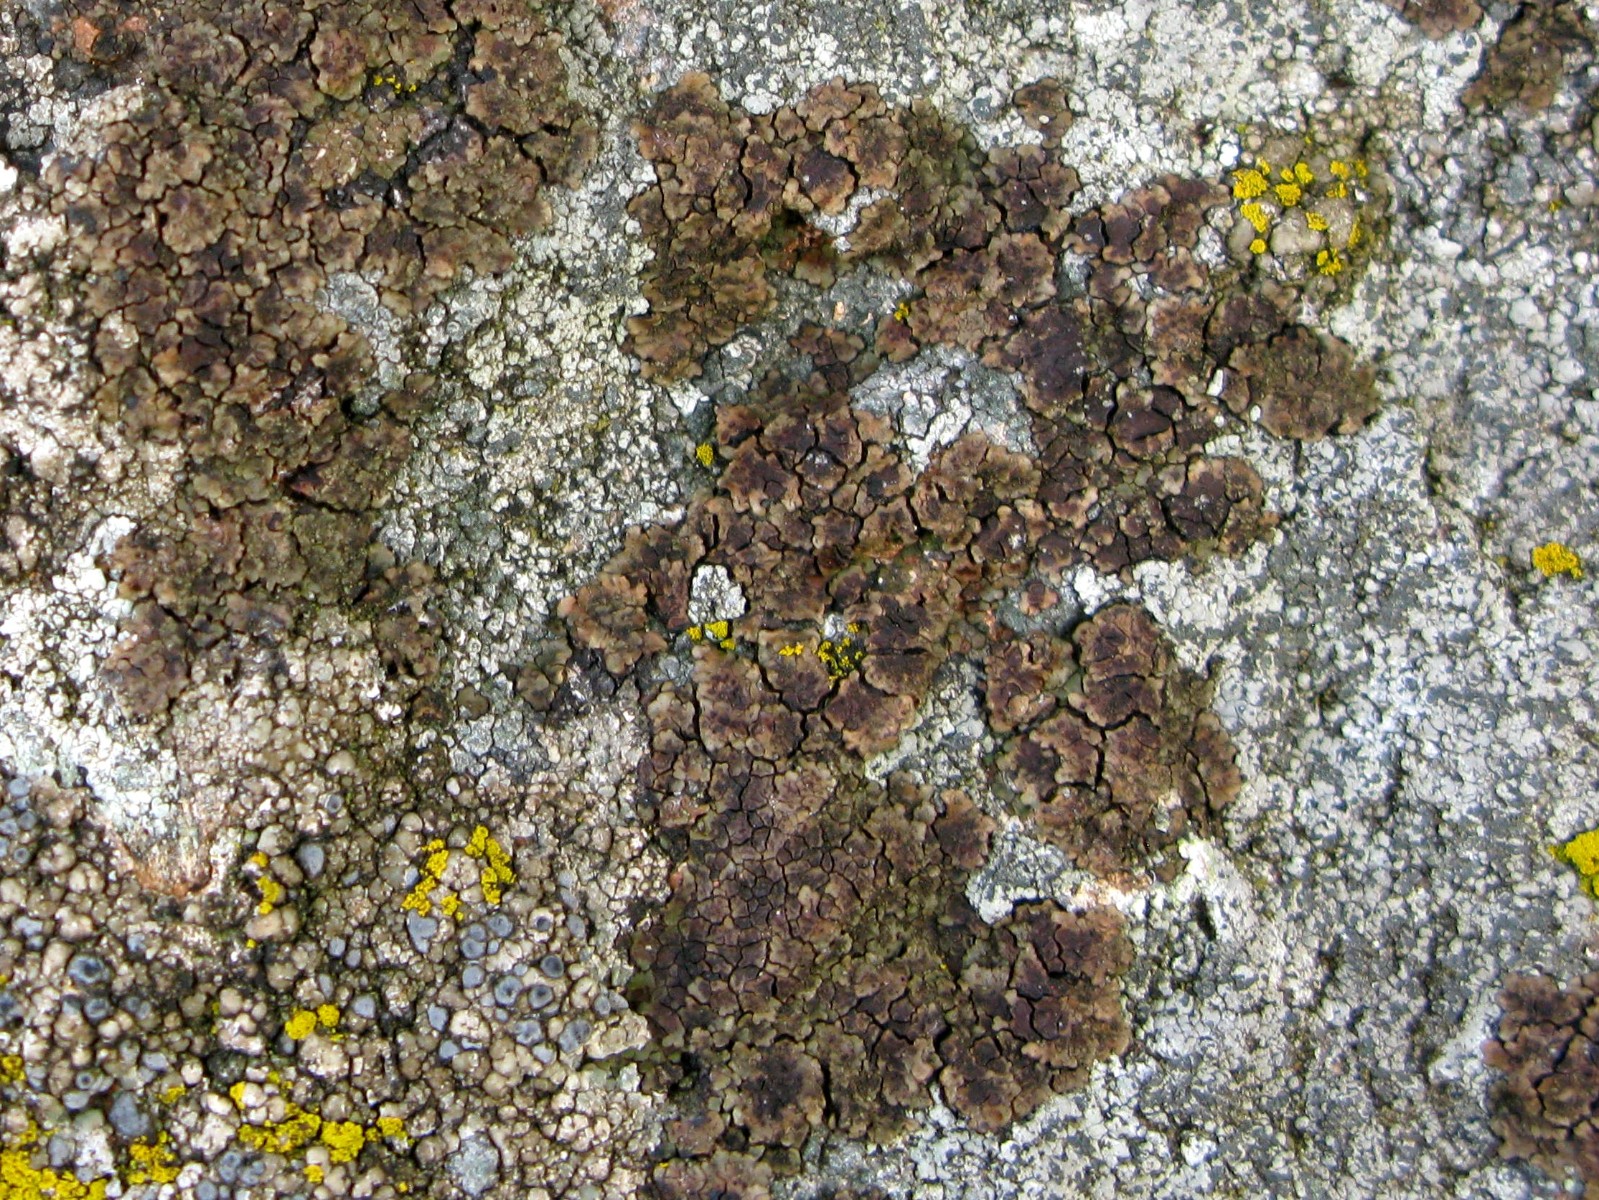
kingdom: Fungi
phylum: Ascomycota
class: Lecanoromycetes
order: Acarosporales
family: Acarosporaceae
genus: Acarospora
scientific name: Acarospora fuscata
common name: brun småsporelav
